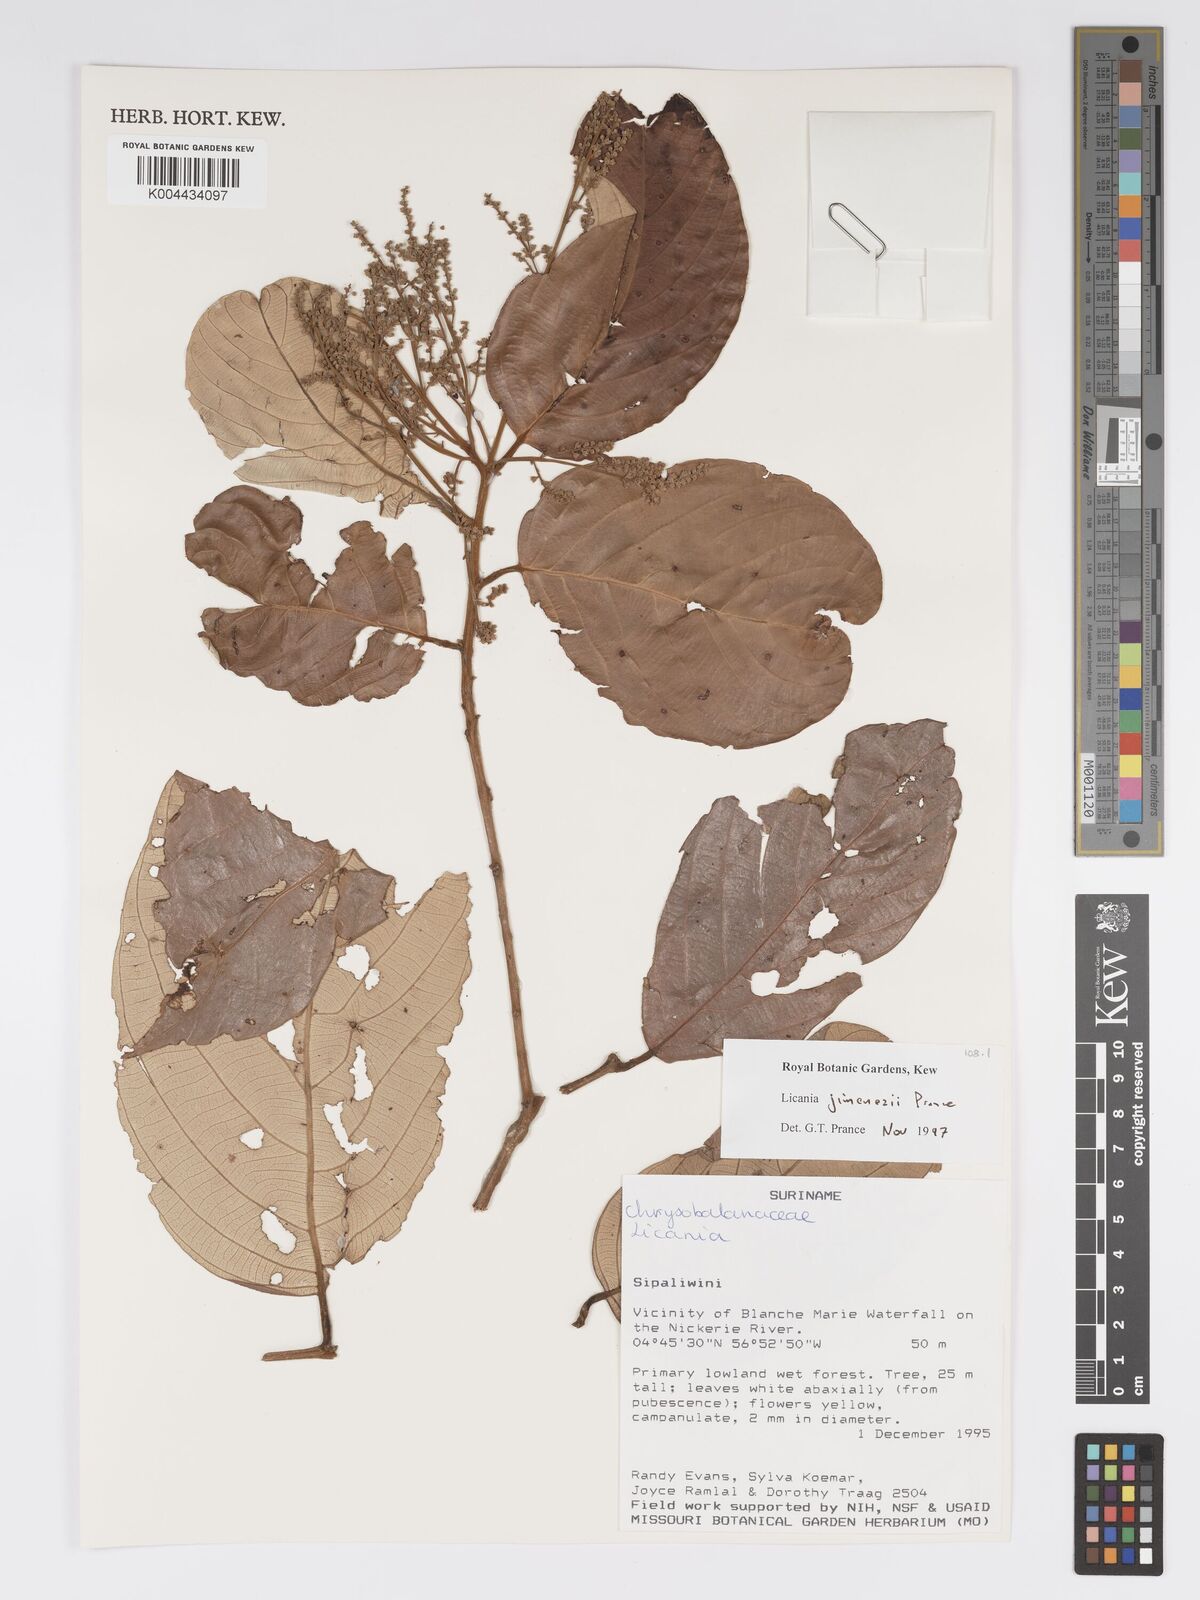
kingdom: Plantae
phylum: Tracheophyta
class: Magnoliopsida
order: Malpighiales
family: Chrysobalanaceae
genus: Licania
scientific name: Licania jimenezii
